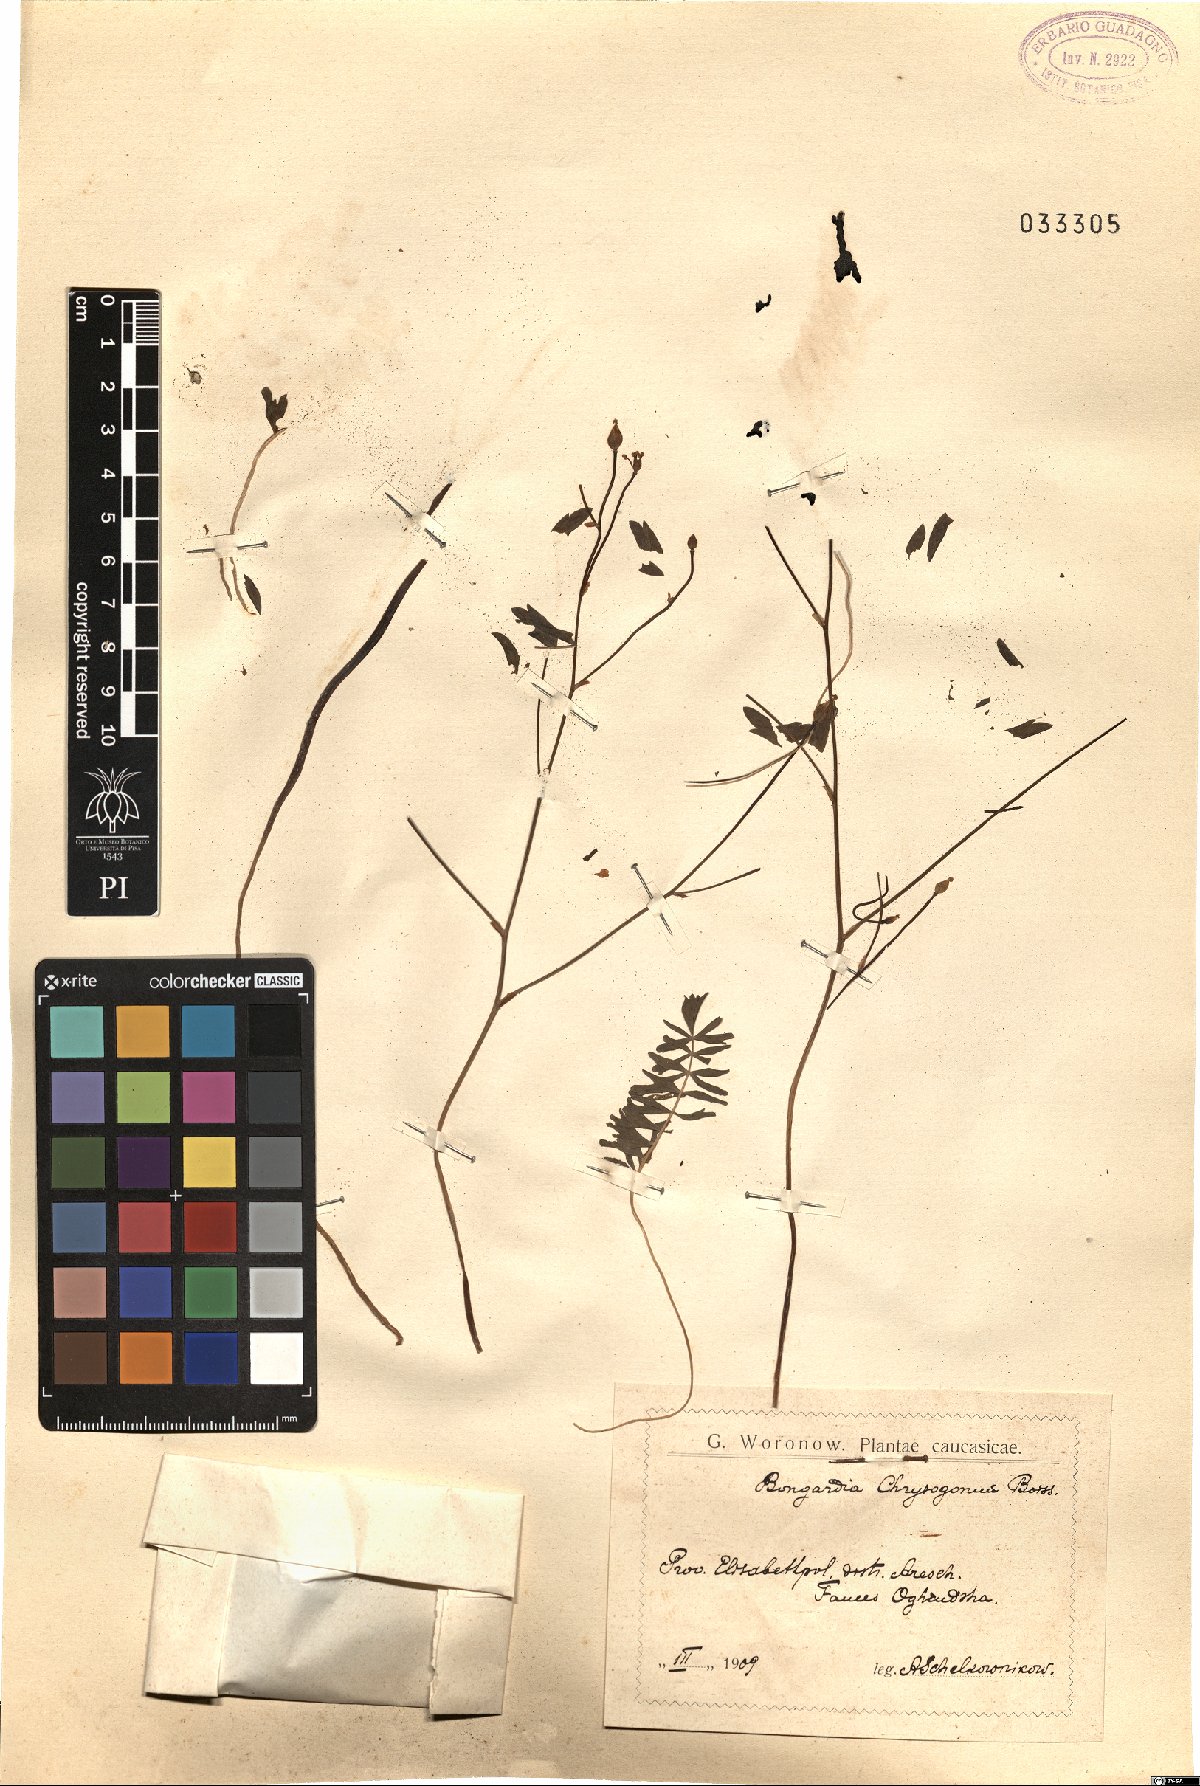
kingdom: Plantae
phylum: Tracheophyta
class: Magnoliopsida
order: Ranunculales
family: Berberidaceae
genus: Bongardia
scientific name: Bongardia chrysogonum
